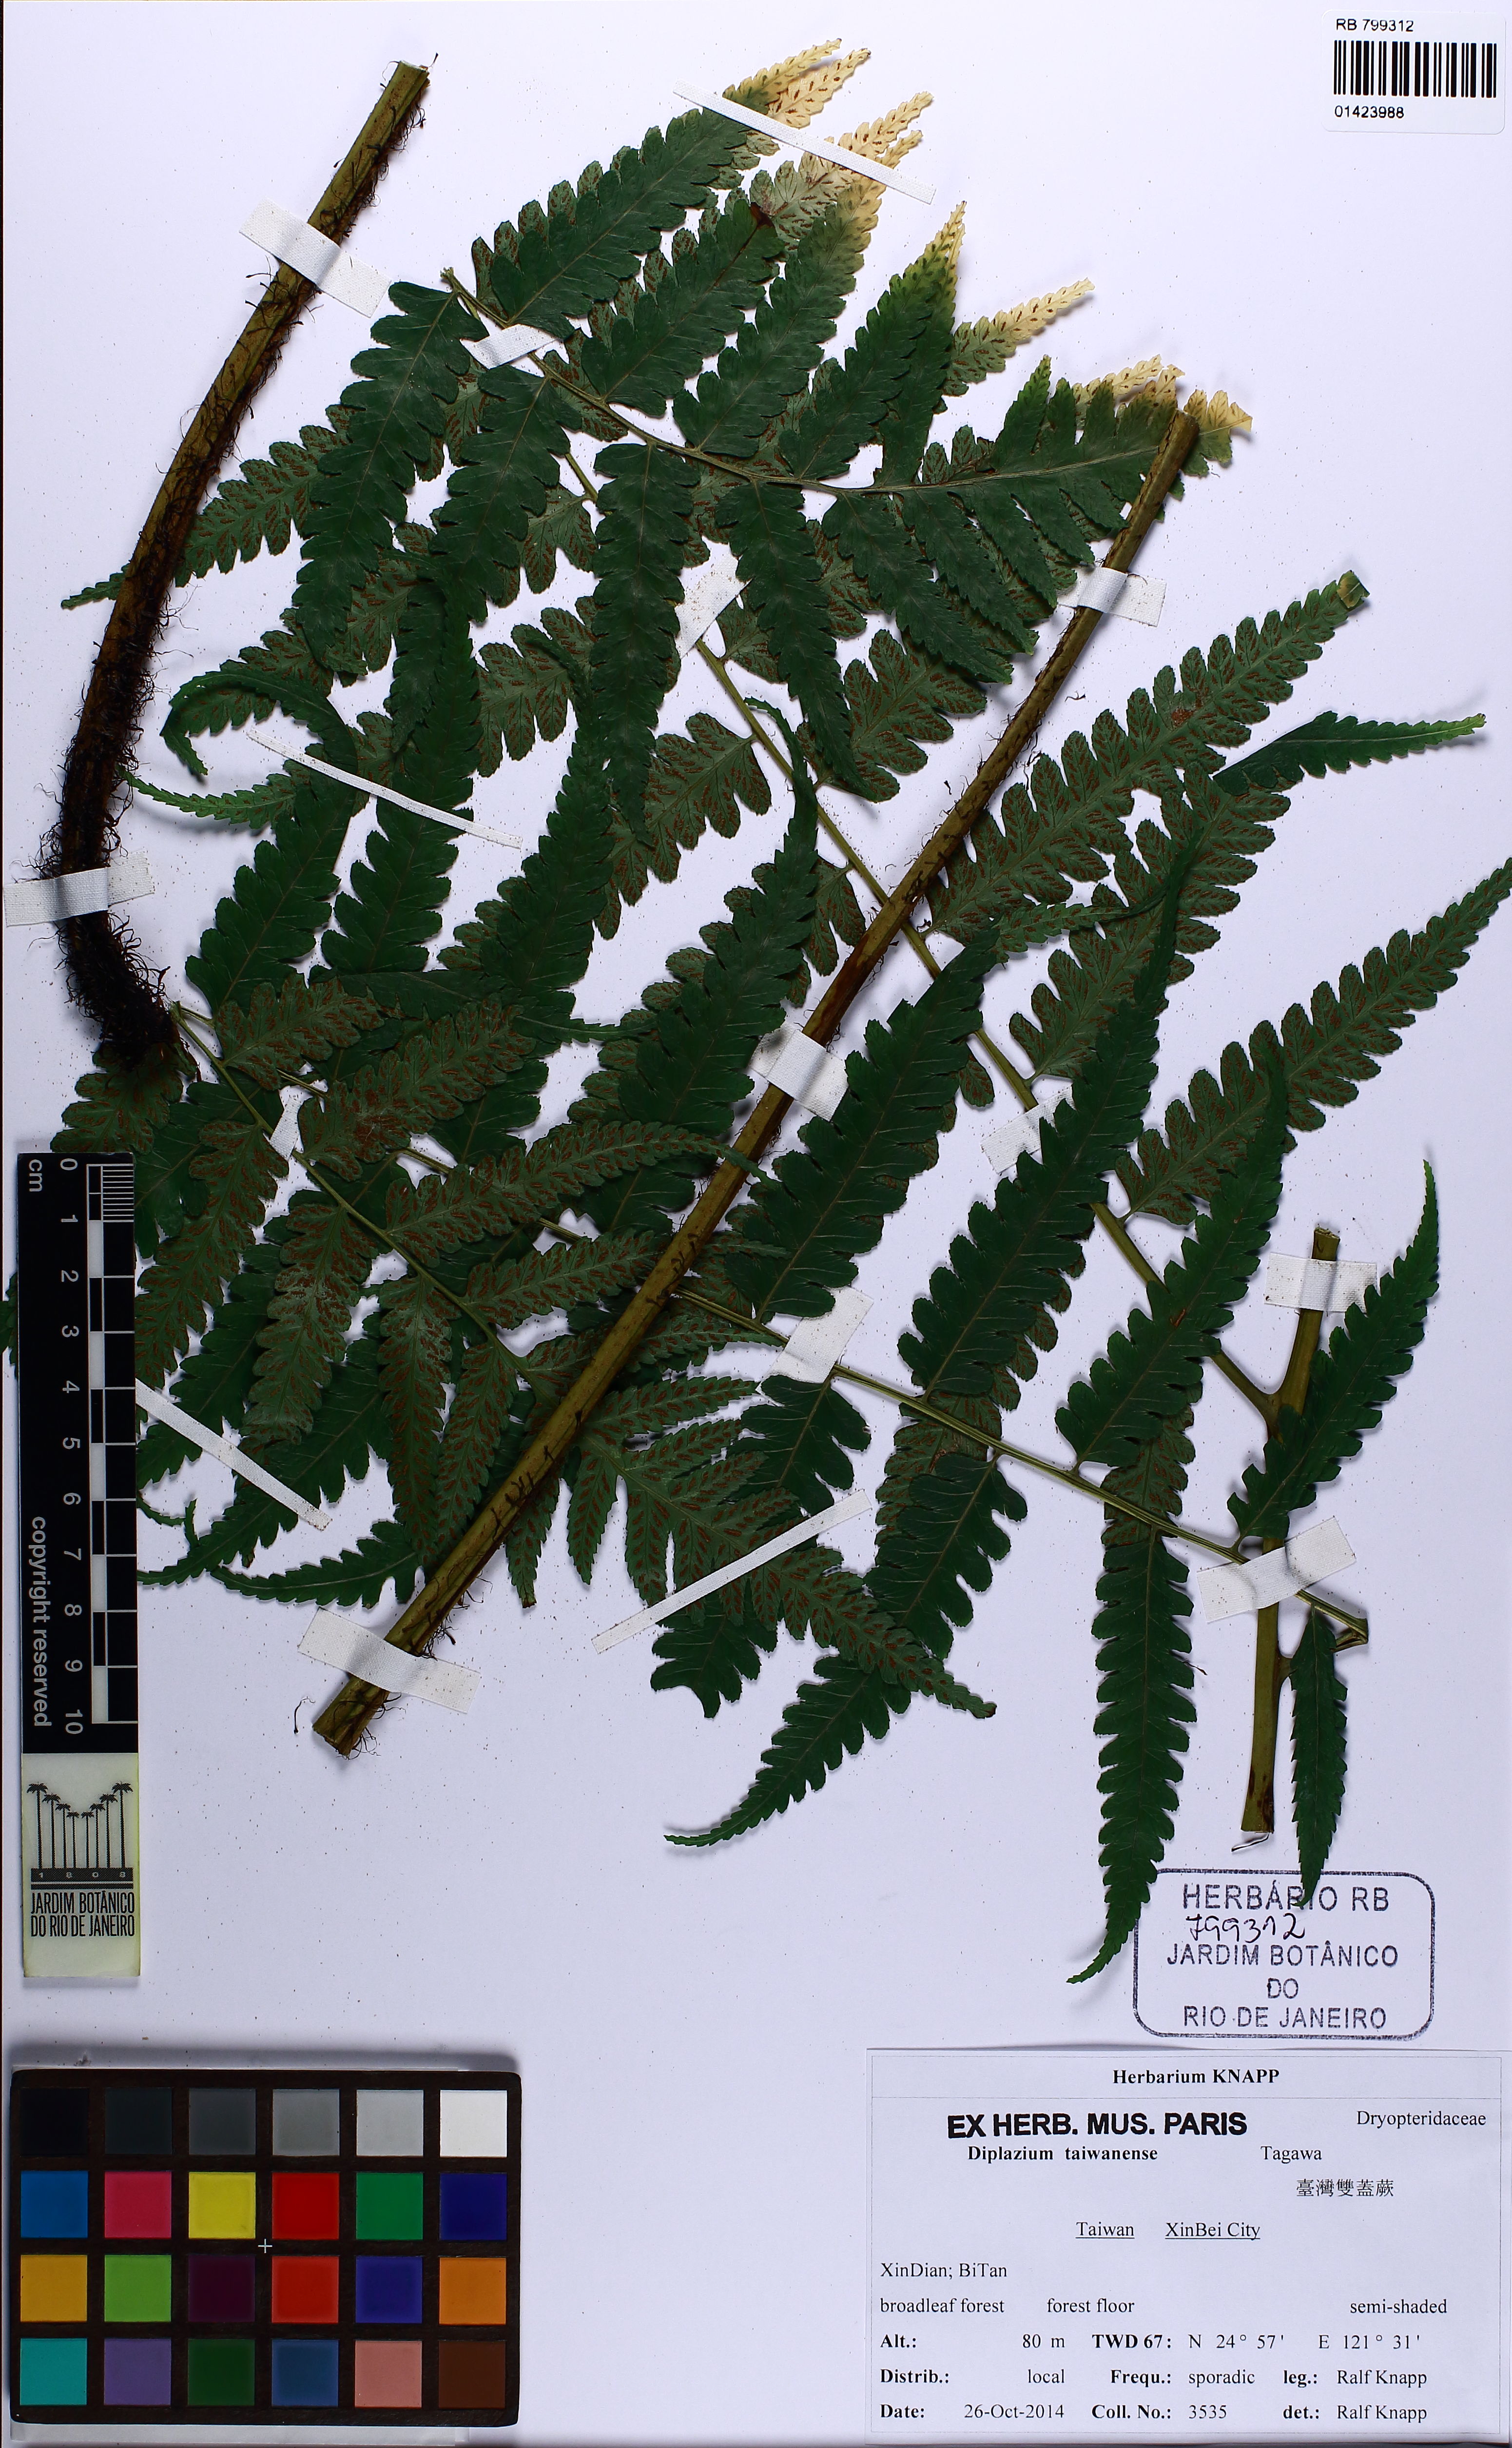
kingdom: Plantae
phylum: Tracheophyta
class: Polypodiopsida
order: Polypodiales
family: Athyriaceae
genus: Diplazium
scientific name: Diplazium taiwanense
